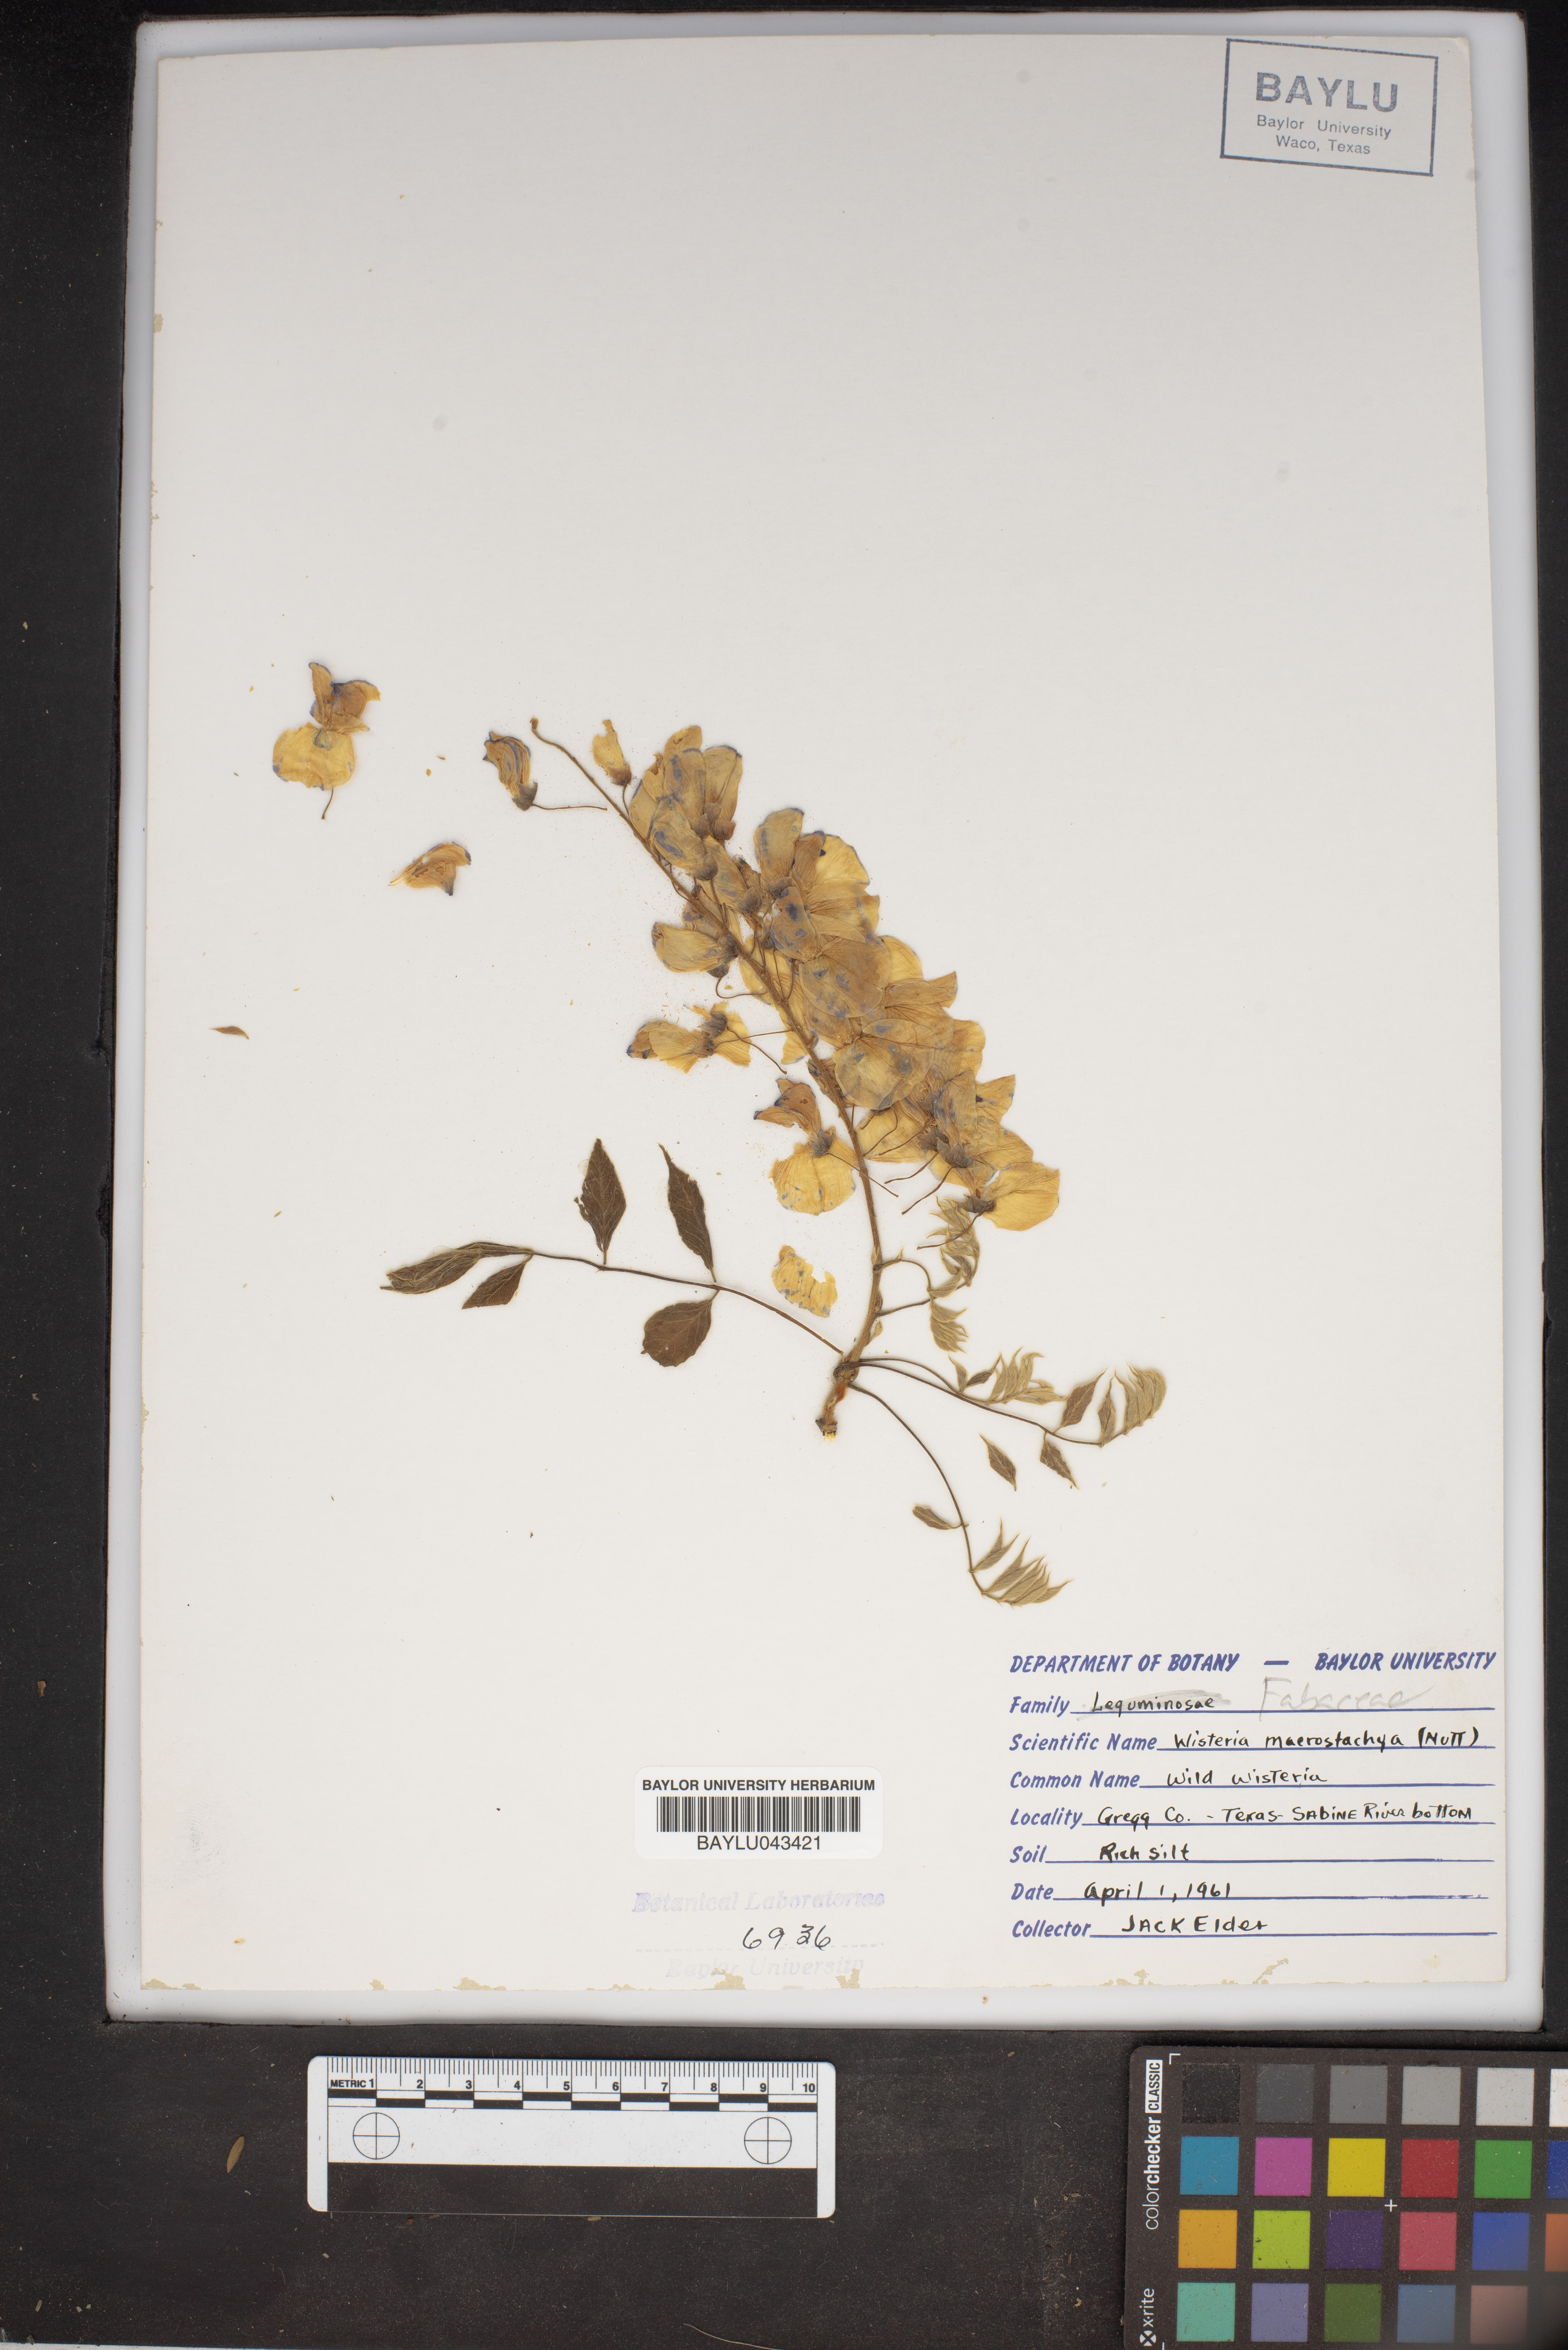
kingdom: Plantae
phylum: Tracheophyta
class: Magnoliopsida
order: Fabales
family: Fabaceae
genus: Wisteria
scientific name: Wisteria frutescens
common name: American wisteria
